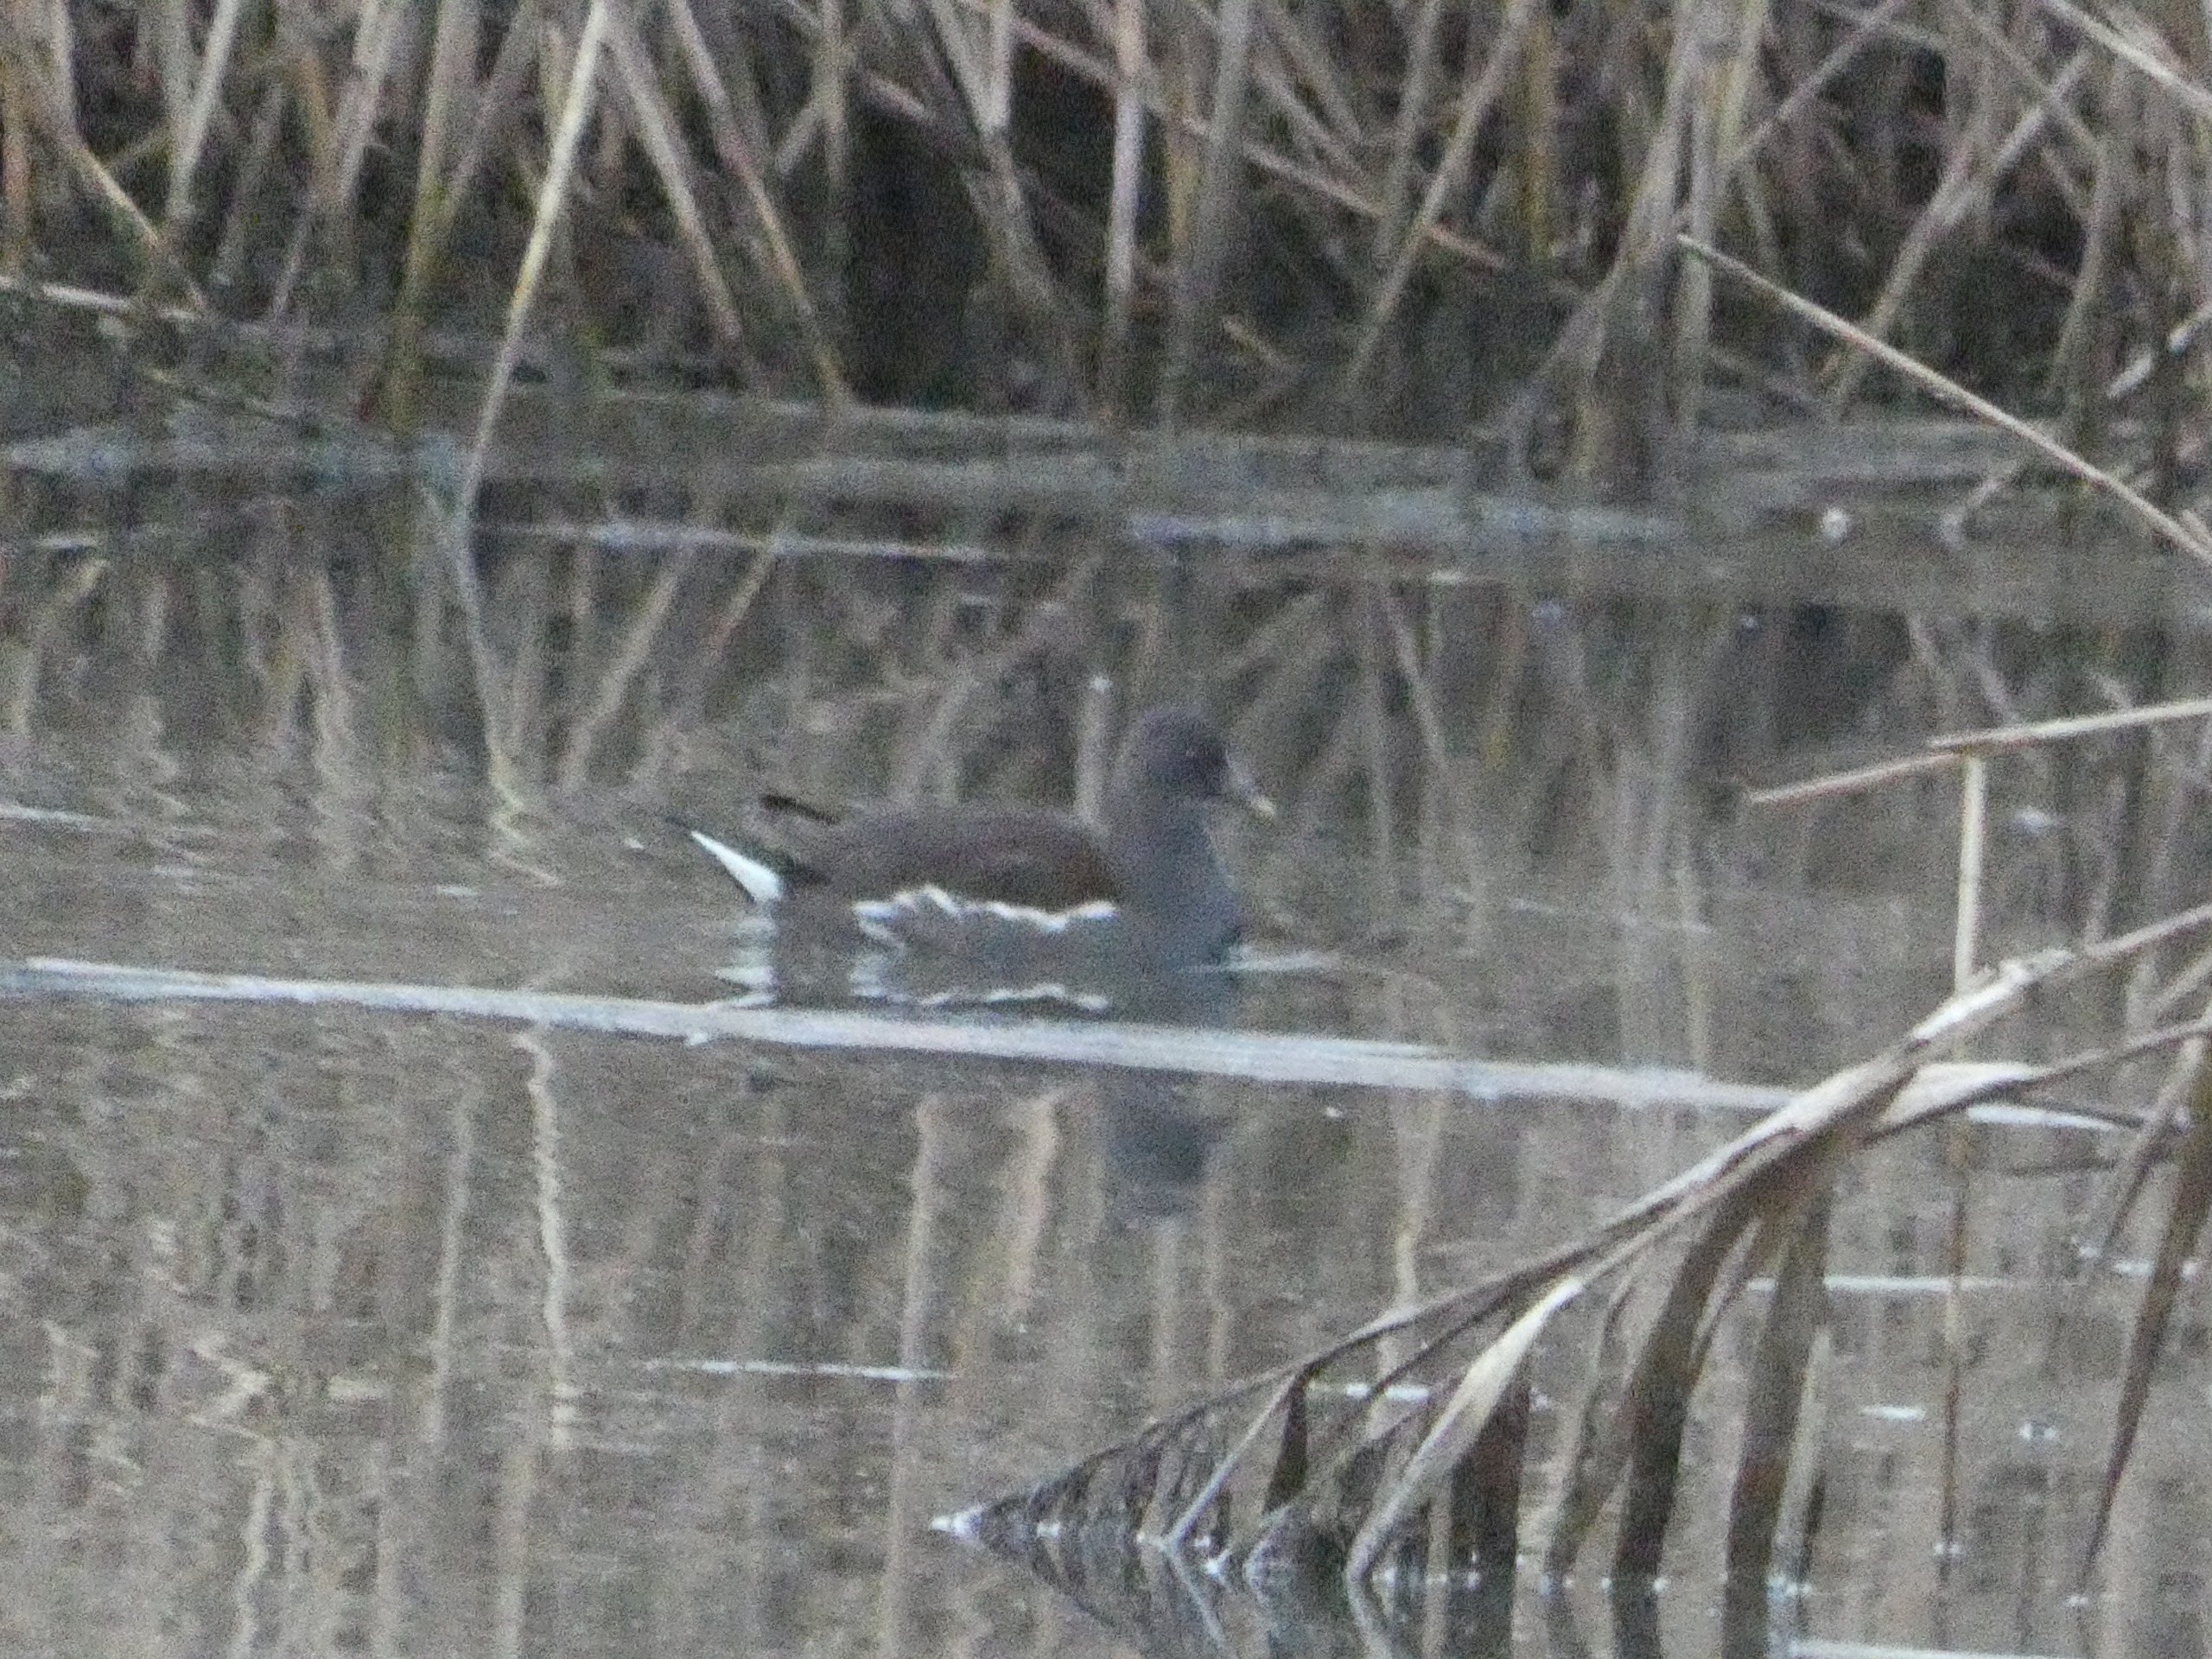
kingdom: Animalia
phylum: Chordata
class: Aves
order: Gruiformes
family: Rallidae
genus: Gallinula
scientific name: Gallinula chloropus
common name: Grønbenet rørhøne
